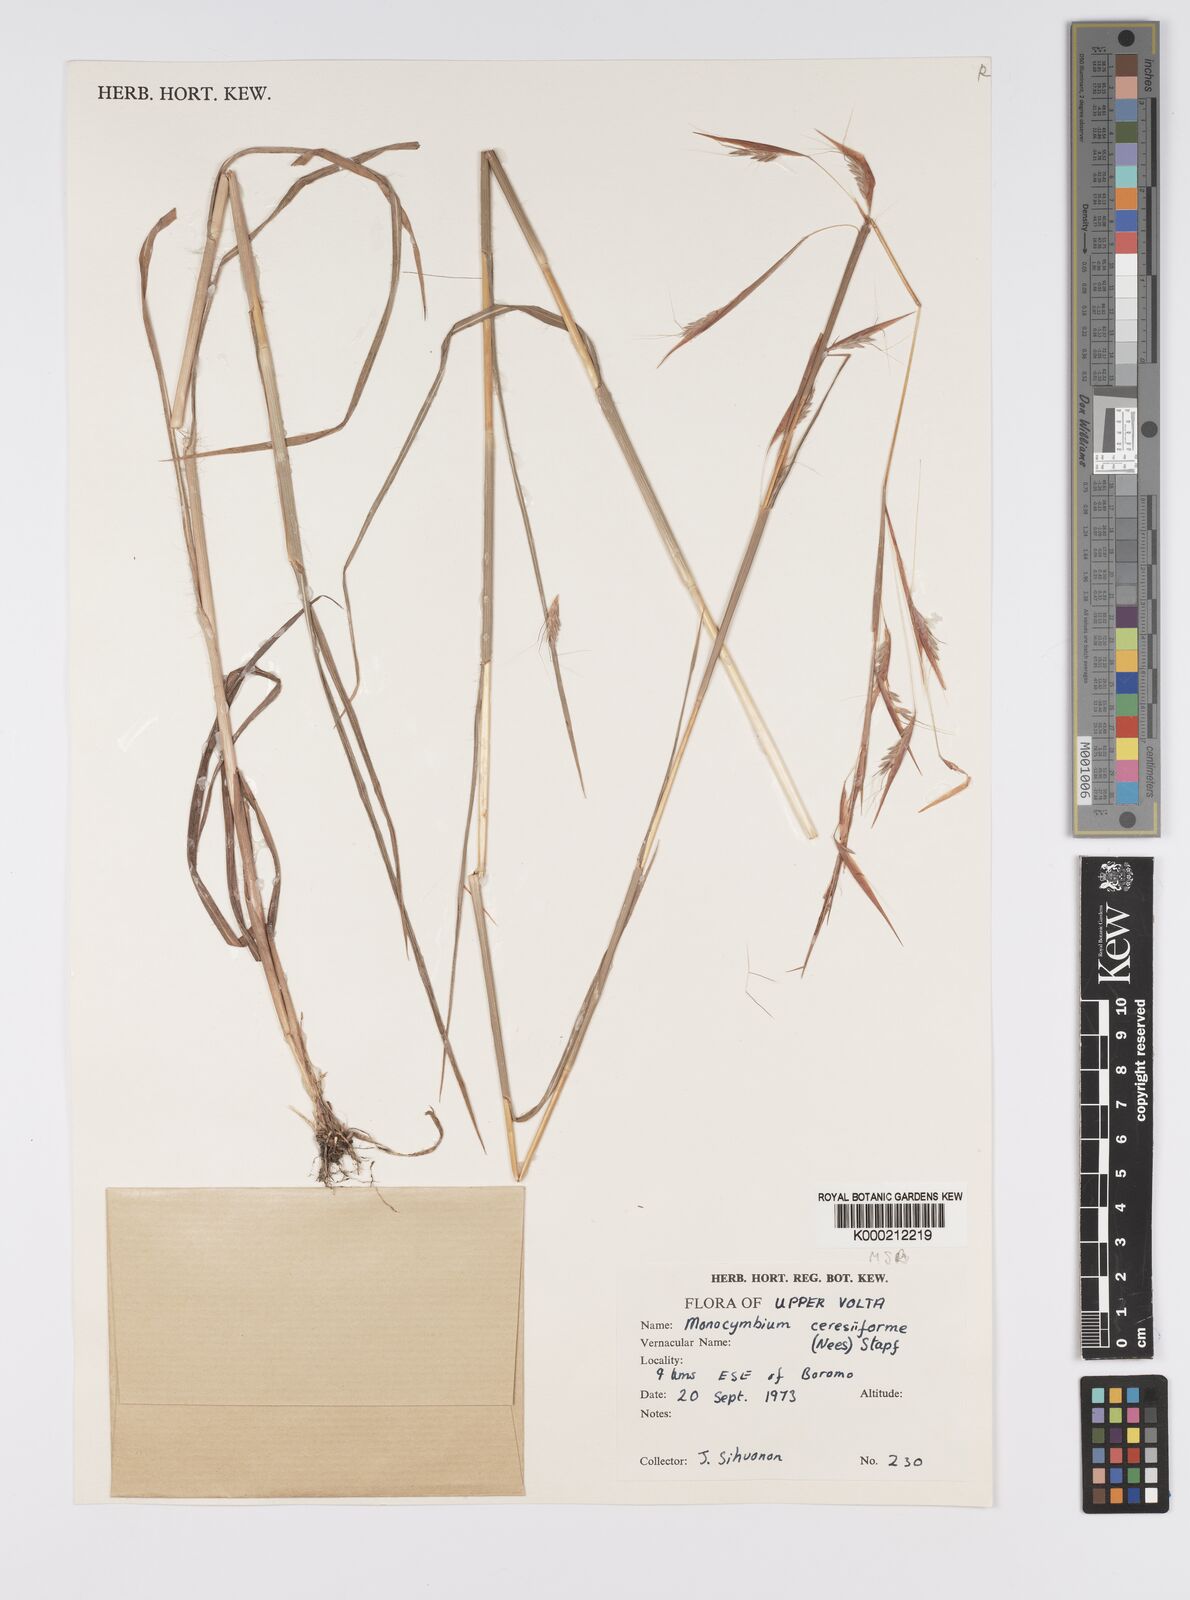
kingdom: Plantae
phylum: Tracheophyta
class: Liliopsida
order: Poales
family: Poaceae
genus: Monocymbium
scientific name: Monocymbium ceresiiforme
